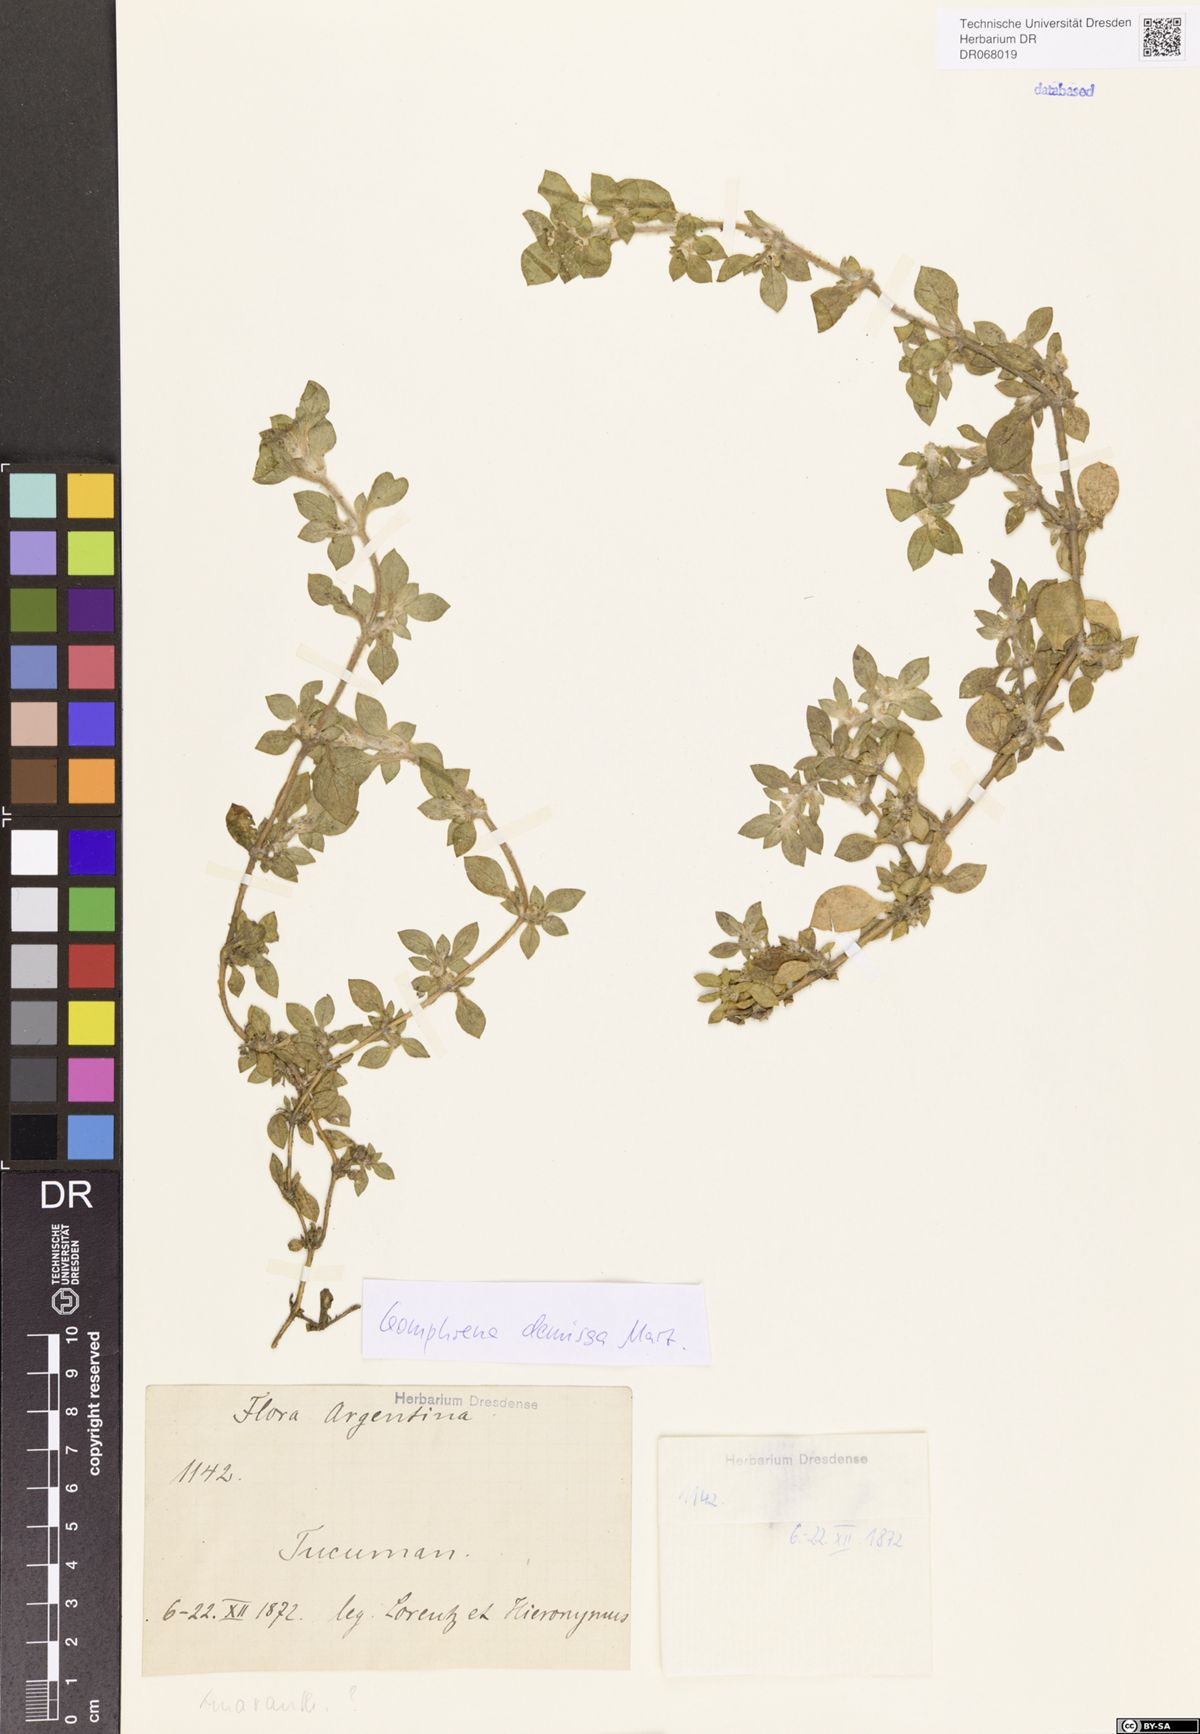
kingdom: Plantae
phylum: Tracheophyta
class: Magnoliopsida
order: Caryophyllales
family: Amaranthaceae
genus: Gomphrena
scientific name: Gomphrena demissa
